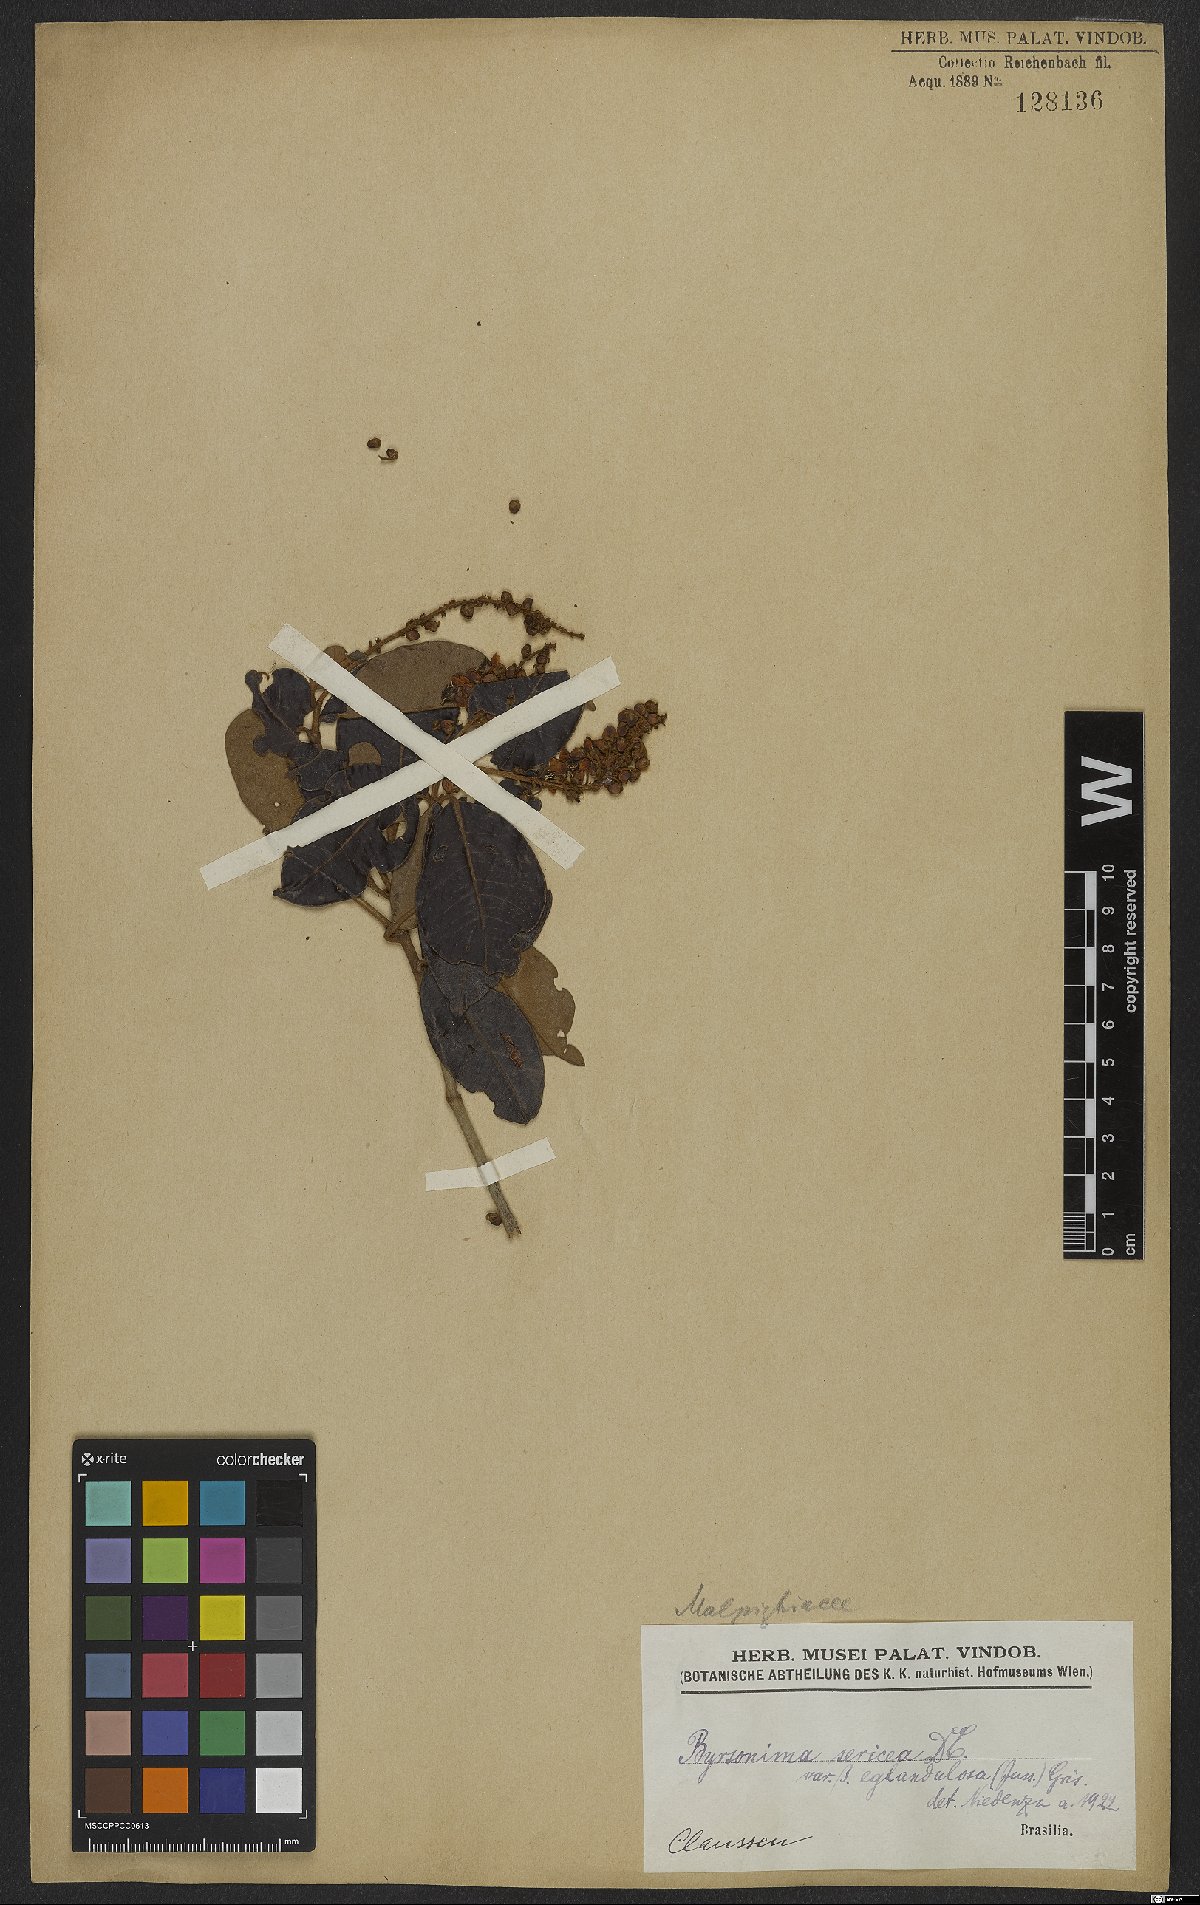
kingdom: Plantae
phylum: Tracheophyta
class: Magnoliopsida
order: Malpighiales
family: Malpighiaceae
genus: Byrsonima
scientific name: Byrsonima sericea
